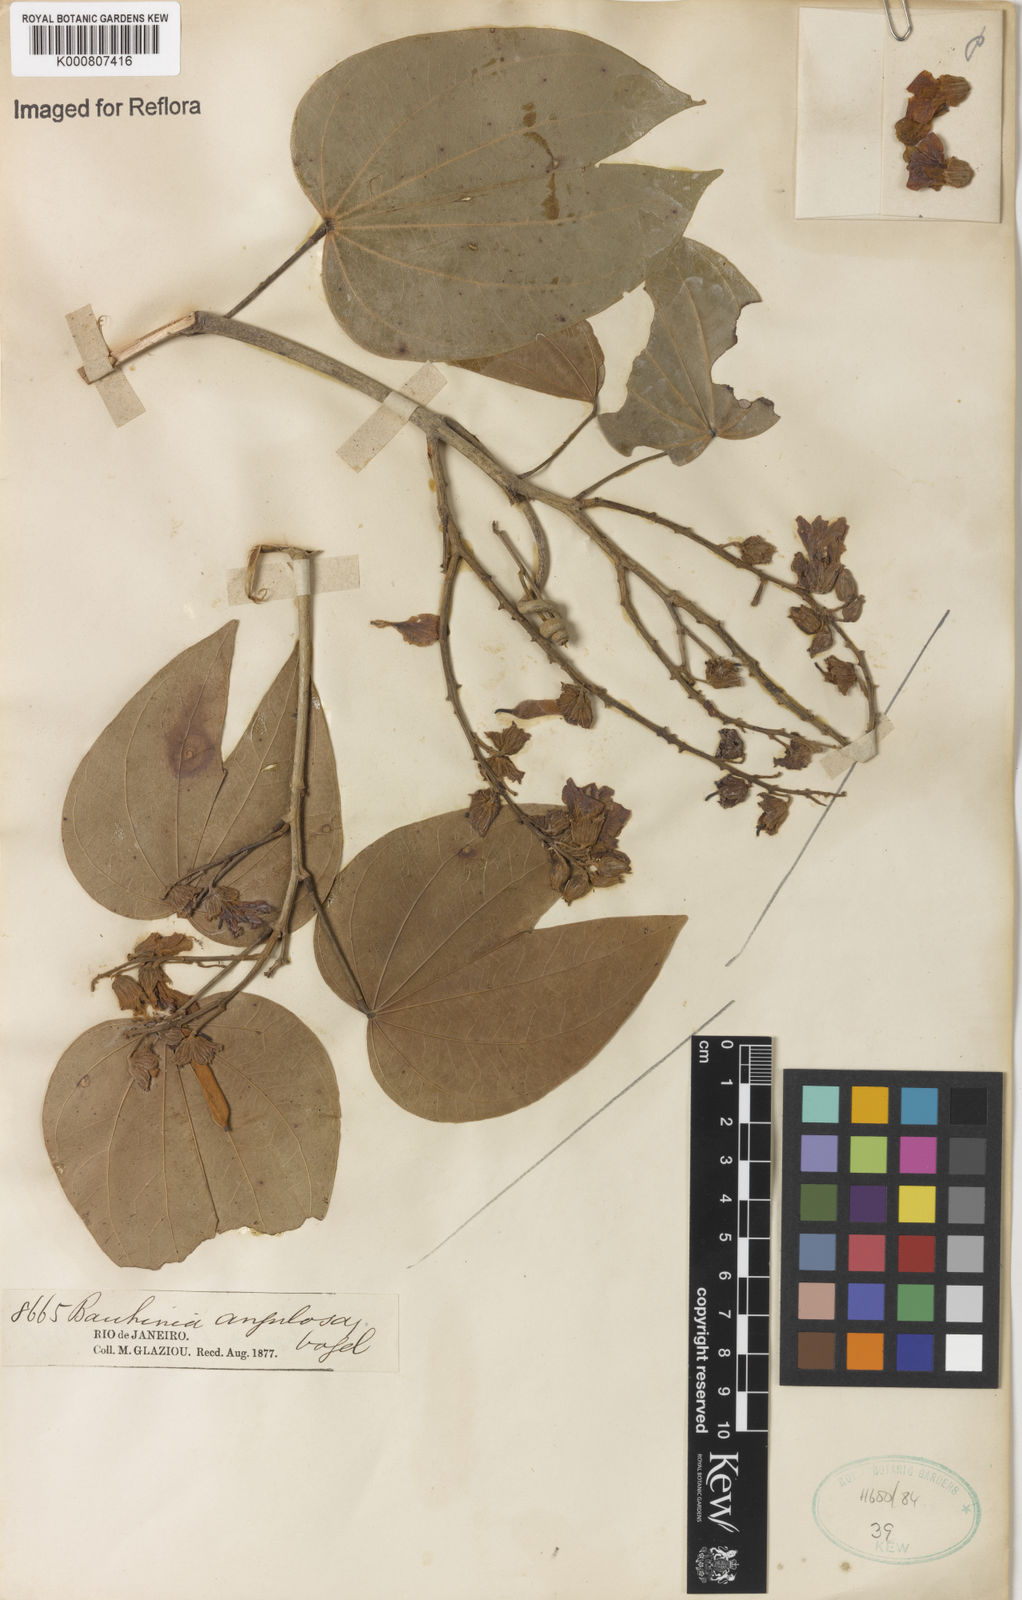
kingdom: Plantae
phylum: Tracheophyta
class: Magnoliopsida
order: Fabales
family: Fabaceae
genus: Schnella
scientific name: Schnella angulosa
